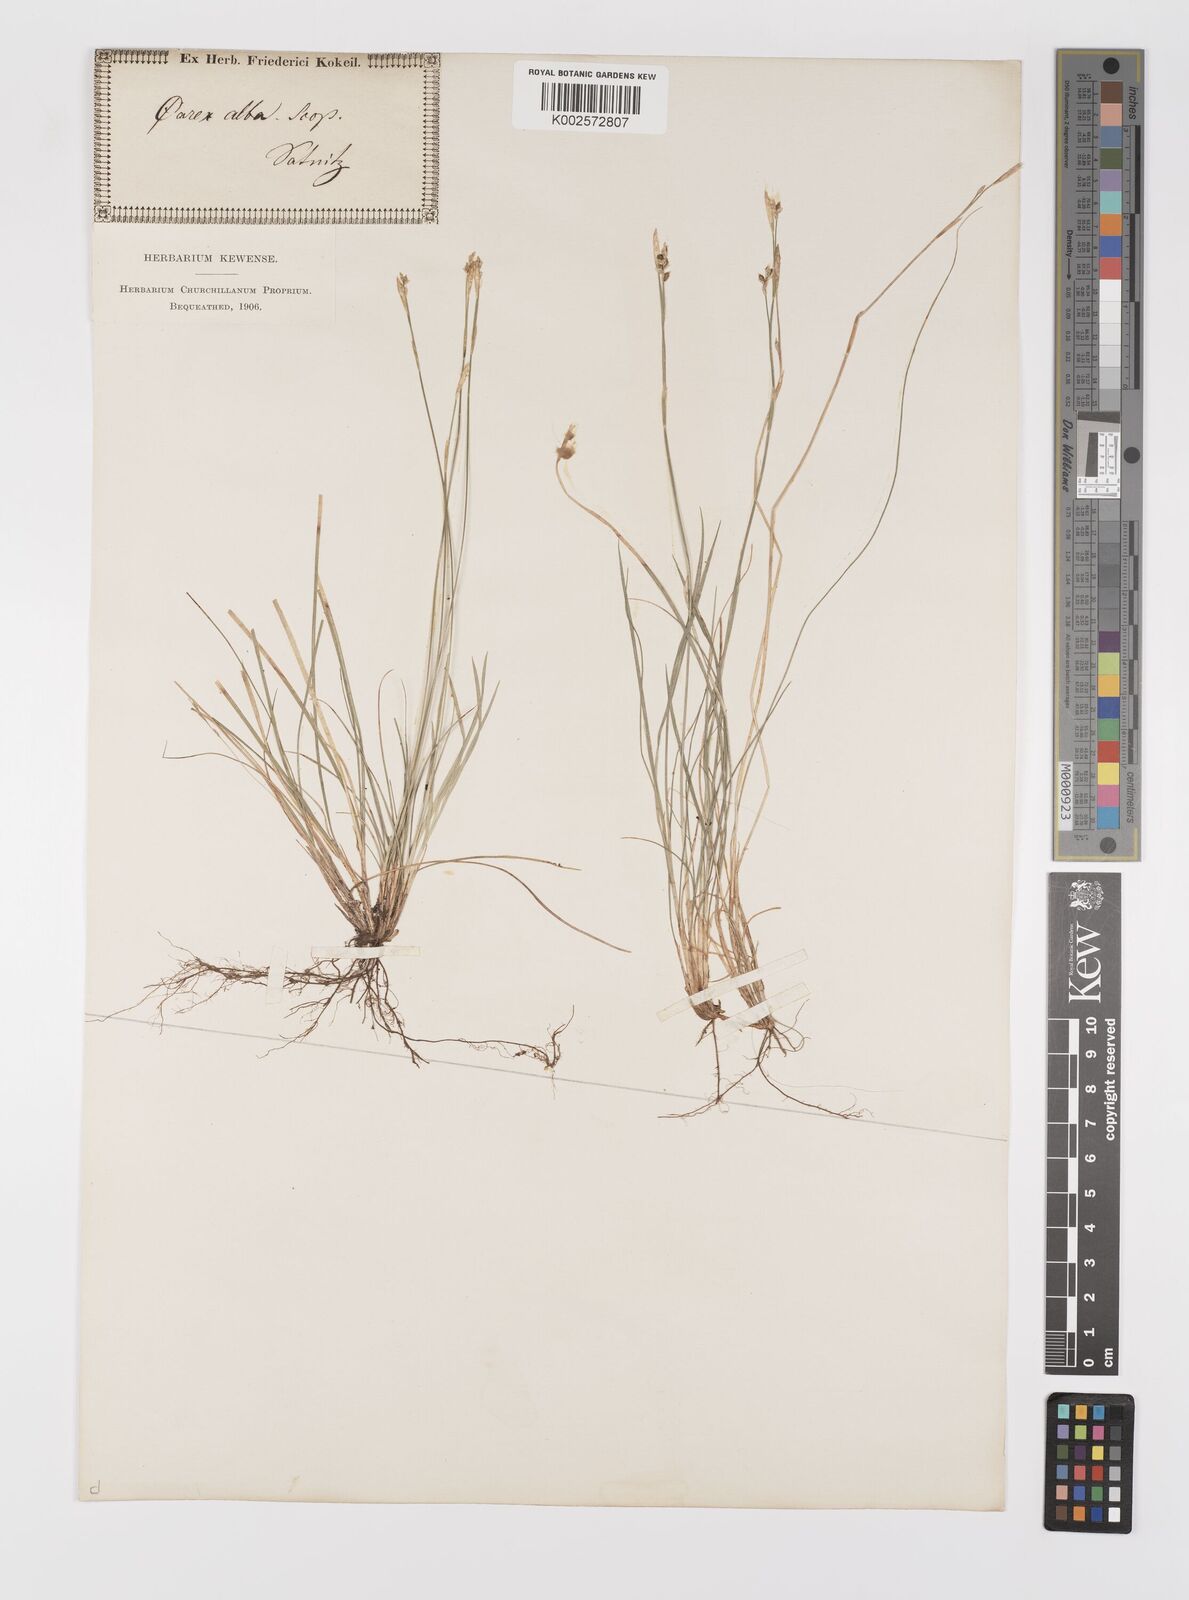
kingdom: Plantae
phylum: Tracheophyta
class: Liliopsida
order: Poales
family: Cyperaceae
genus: Carex
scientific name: Carex alba
